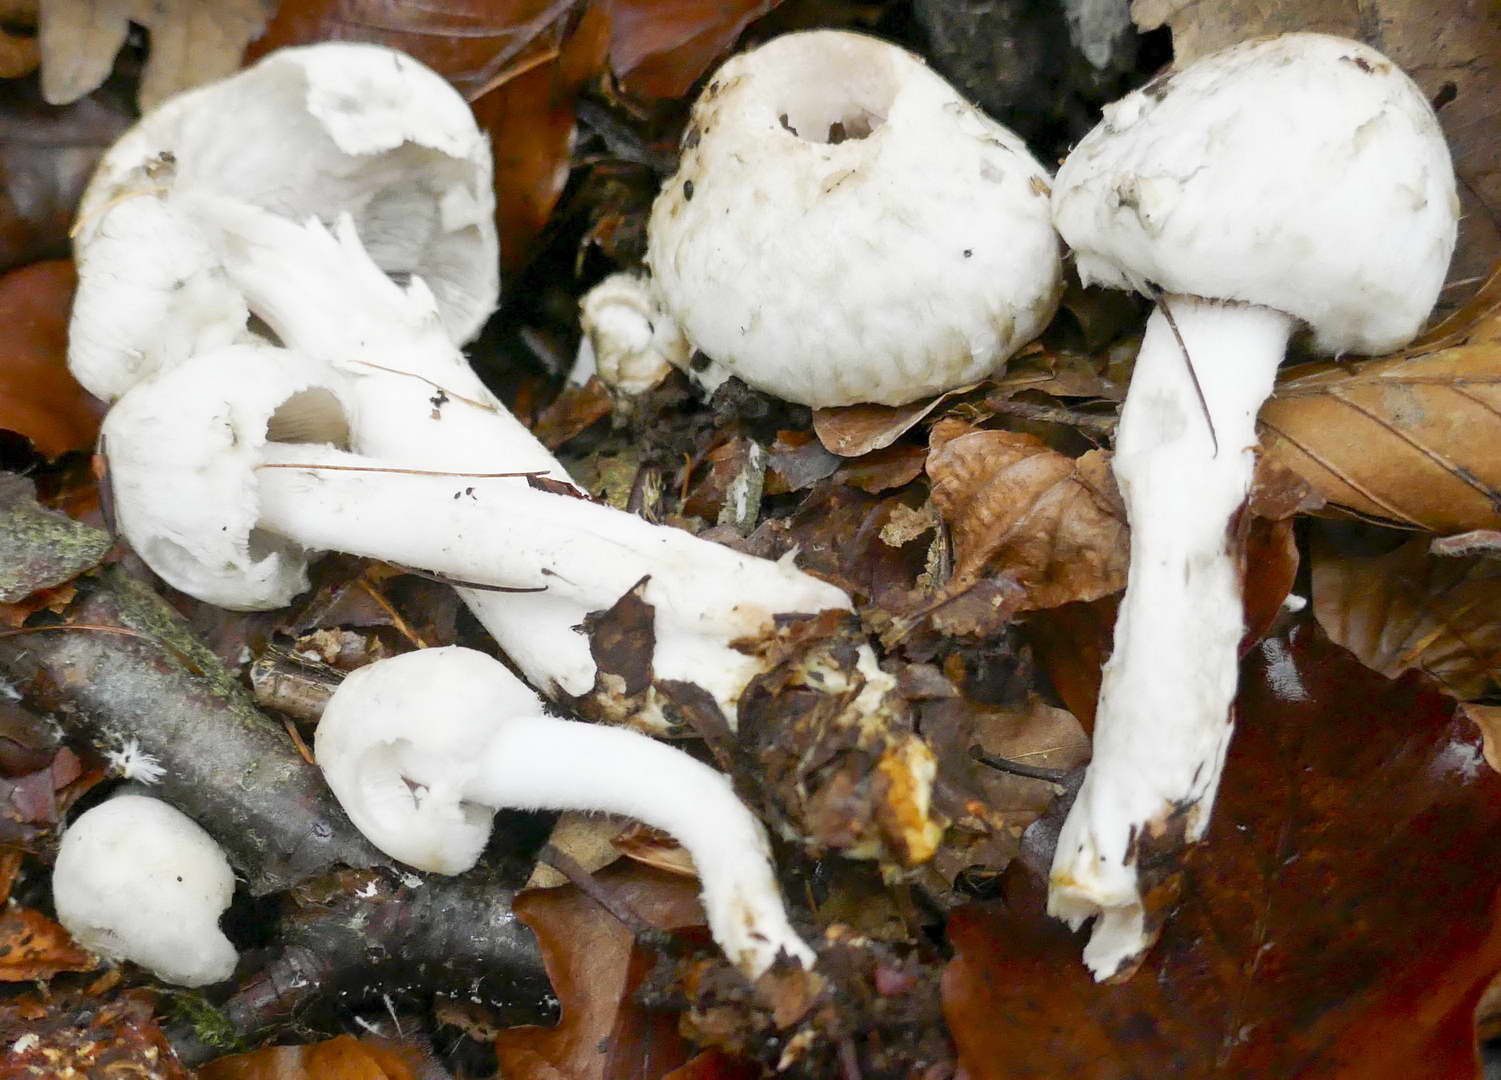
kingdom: Fungi
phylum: Basidiomycota
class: Agaricomycetes
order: Agaricales
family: Psathyrellaceae
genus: Psathyrella
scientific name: Psathyrella cotonea
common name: skællet mørkhat
